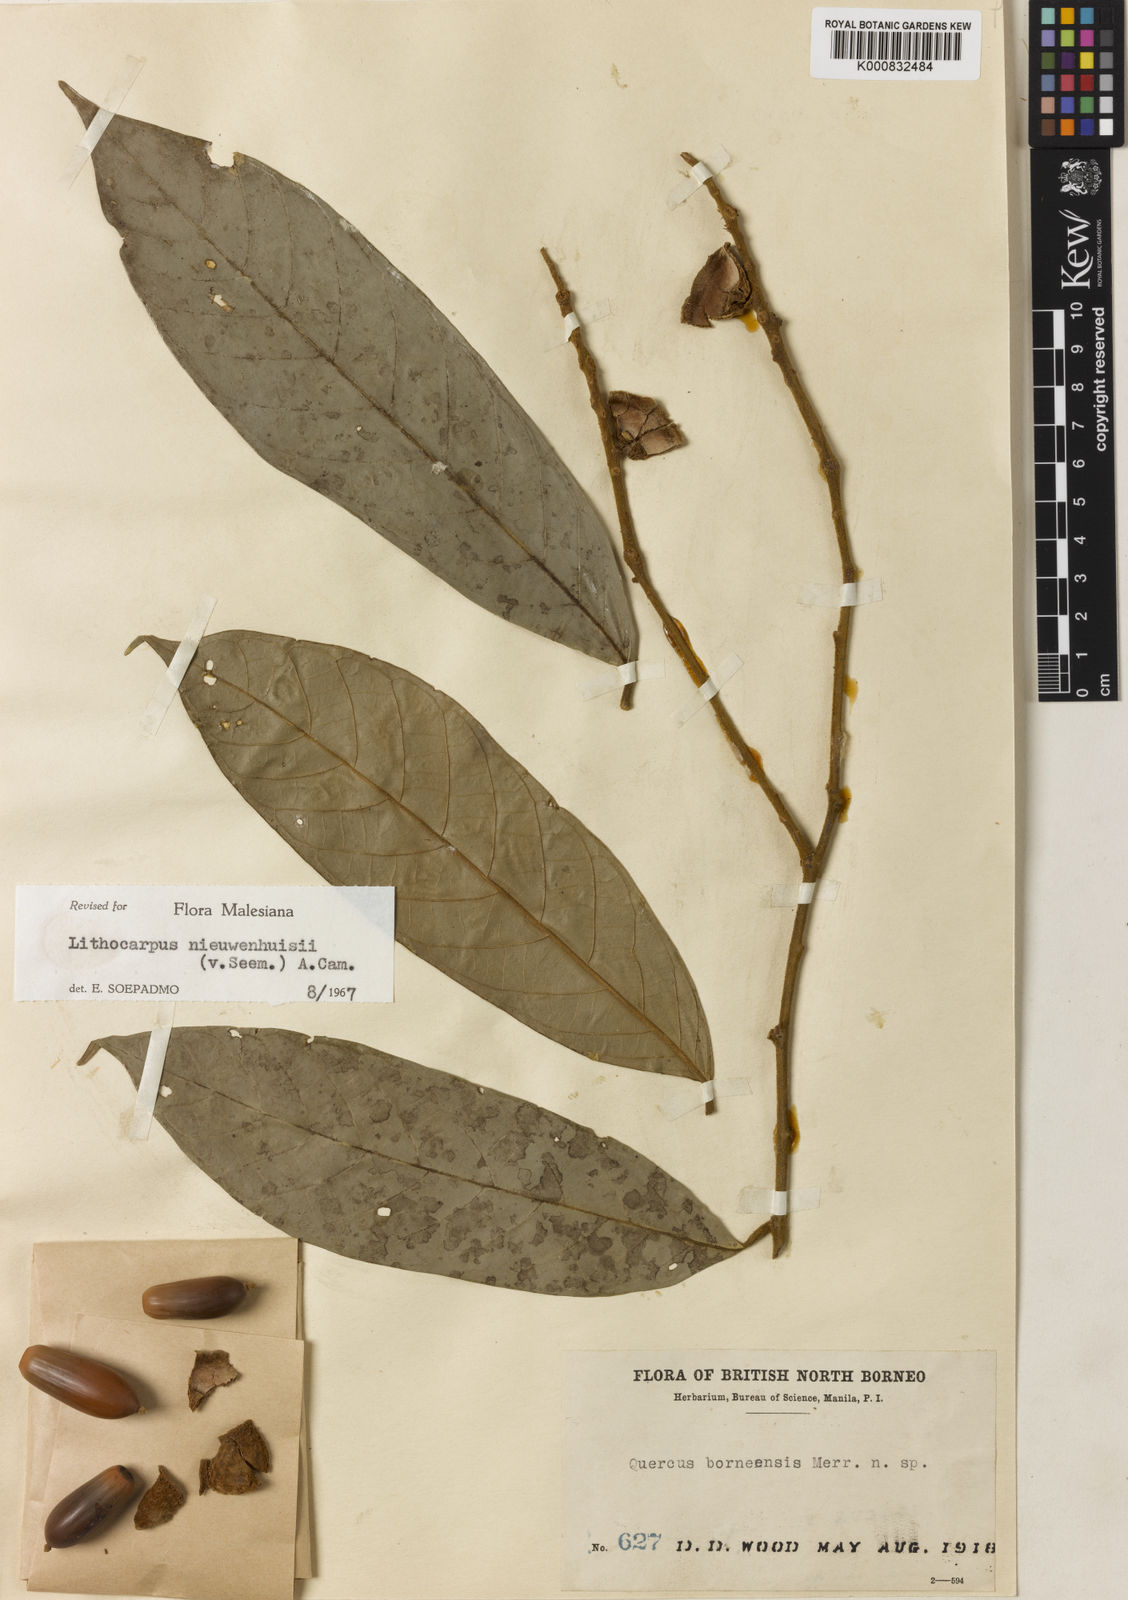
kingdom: Plantae
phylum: Tracheophyta
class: Magnoliopsida
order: Fagales
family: Fagaceae
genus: Lithocarpus
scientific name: Lithocarpus nieuwenhuisii
